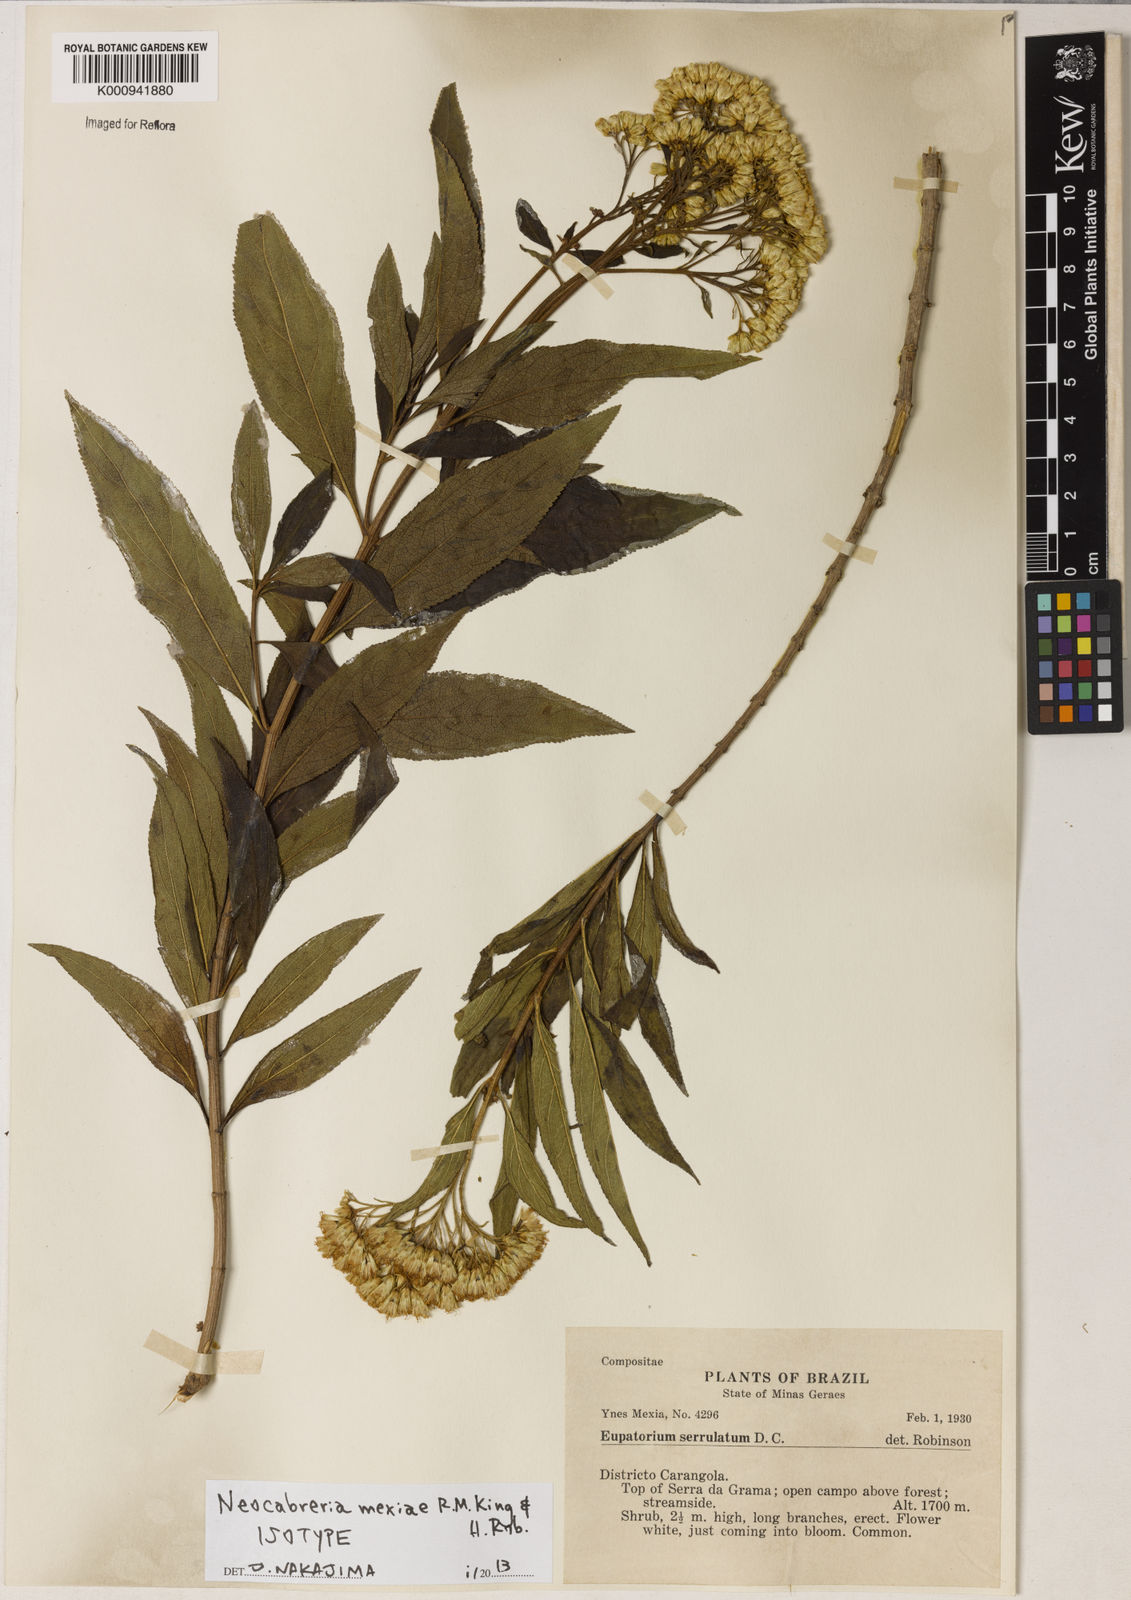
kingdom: Plantae
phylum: Tracheophyta
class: Magnoliopsida
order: Asterales
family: Asteraceae
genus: Neocabreria
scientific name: Neocabreria mexiae
